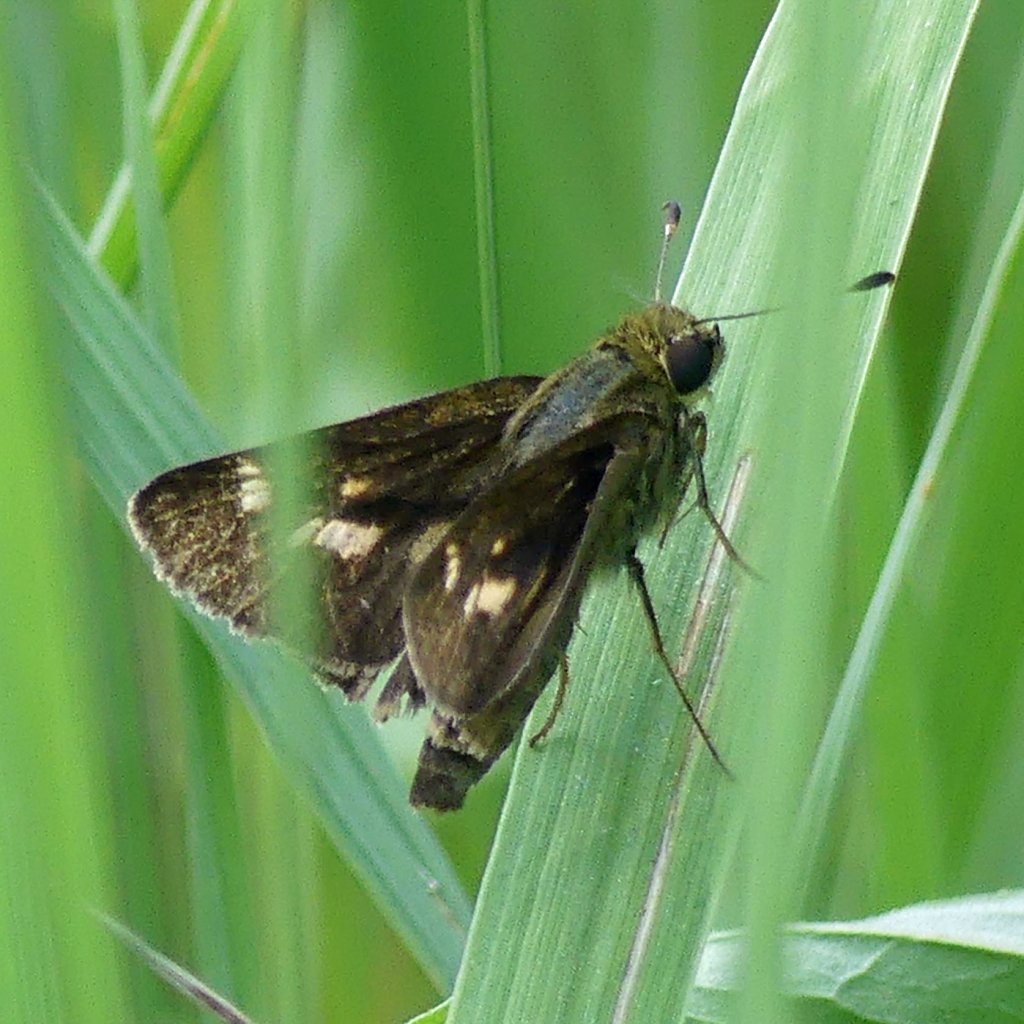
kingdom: Animalia
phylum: Arthropoda
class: Insecta
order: Lepidoptera
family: Hesperiidae
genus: Vernia
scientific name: Vernia verna
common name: Little Glassywing
